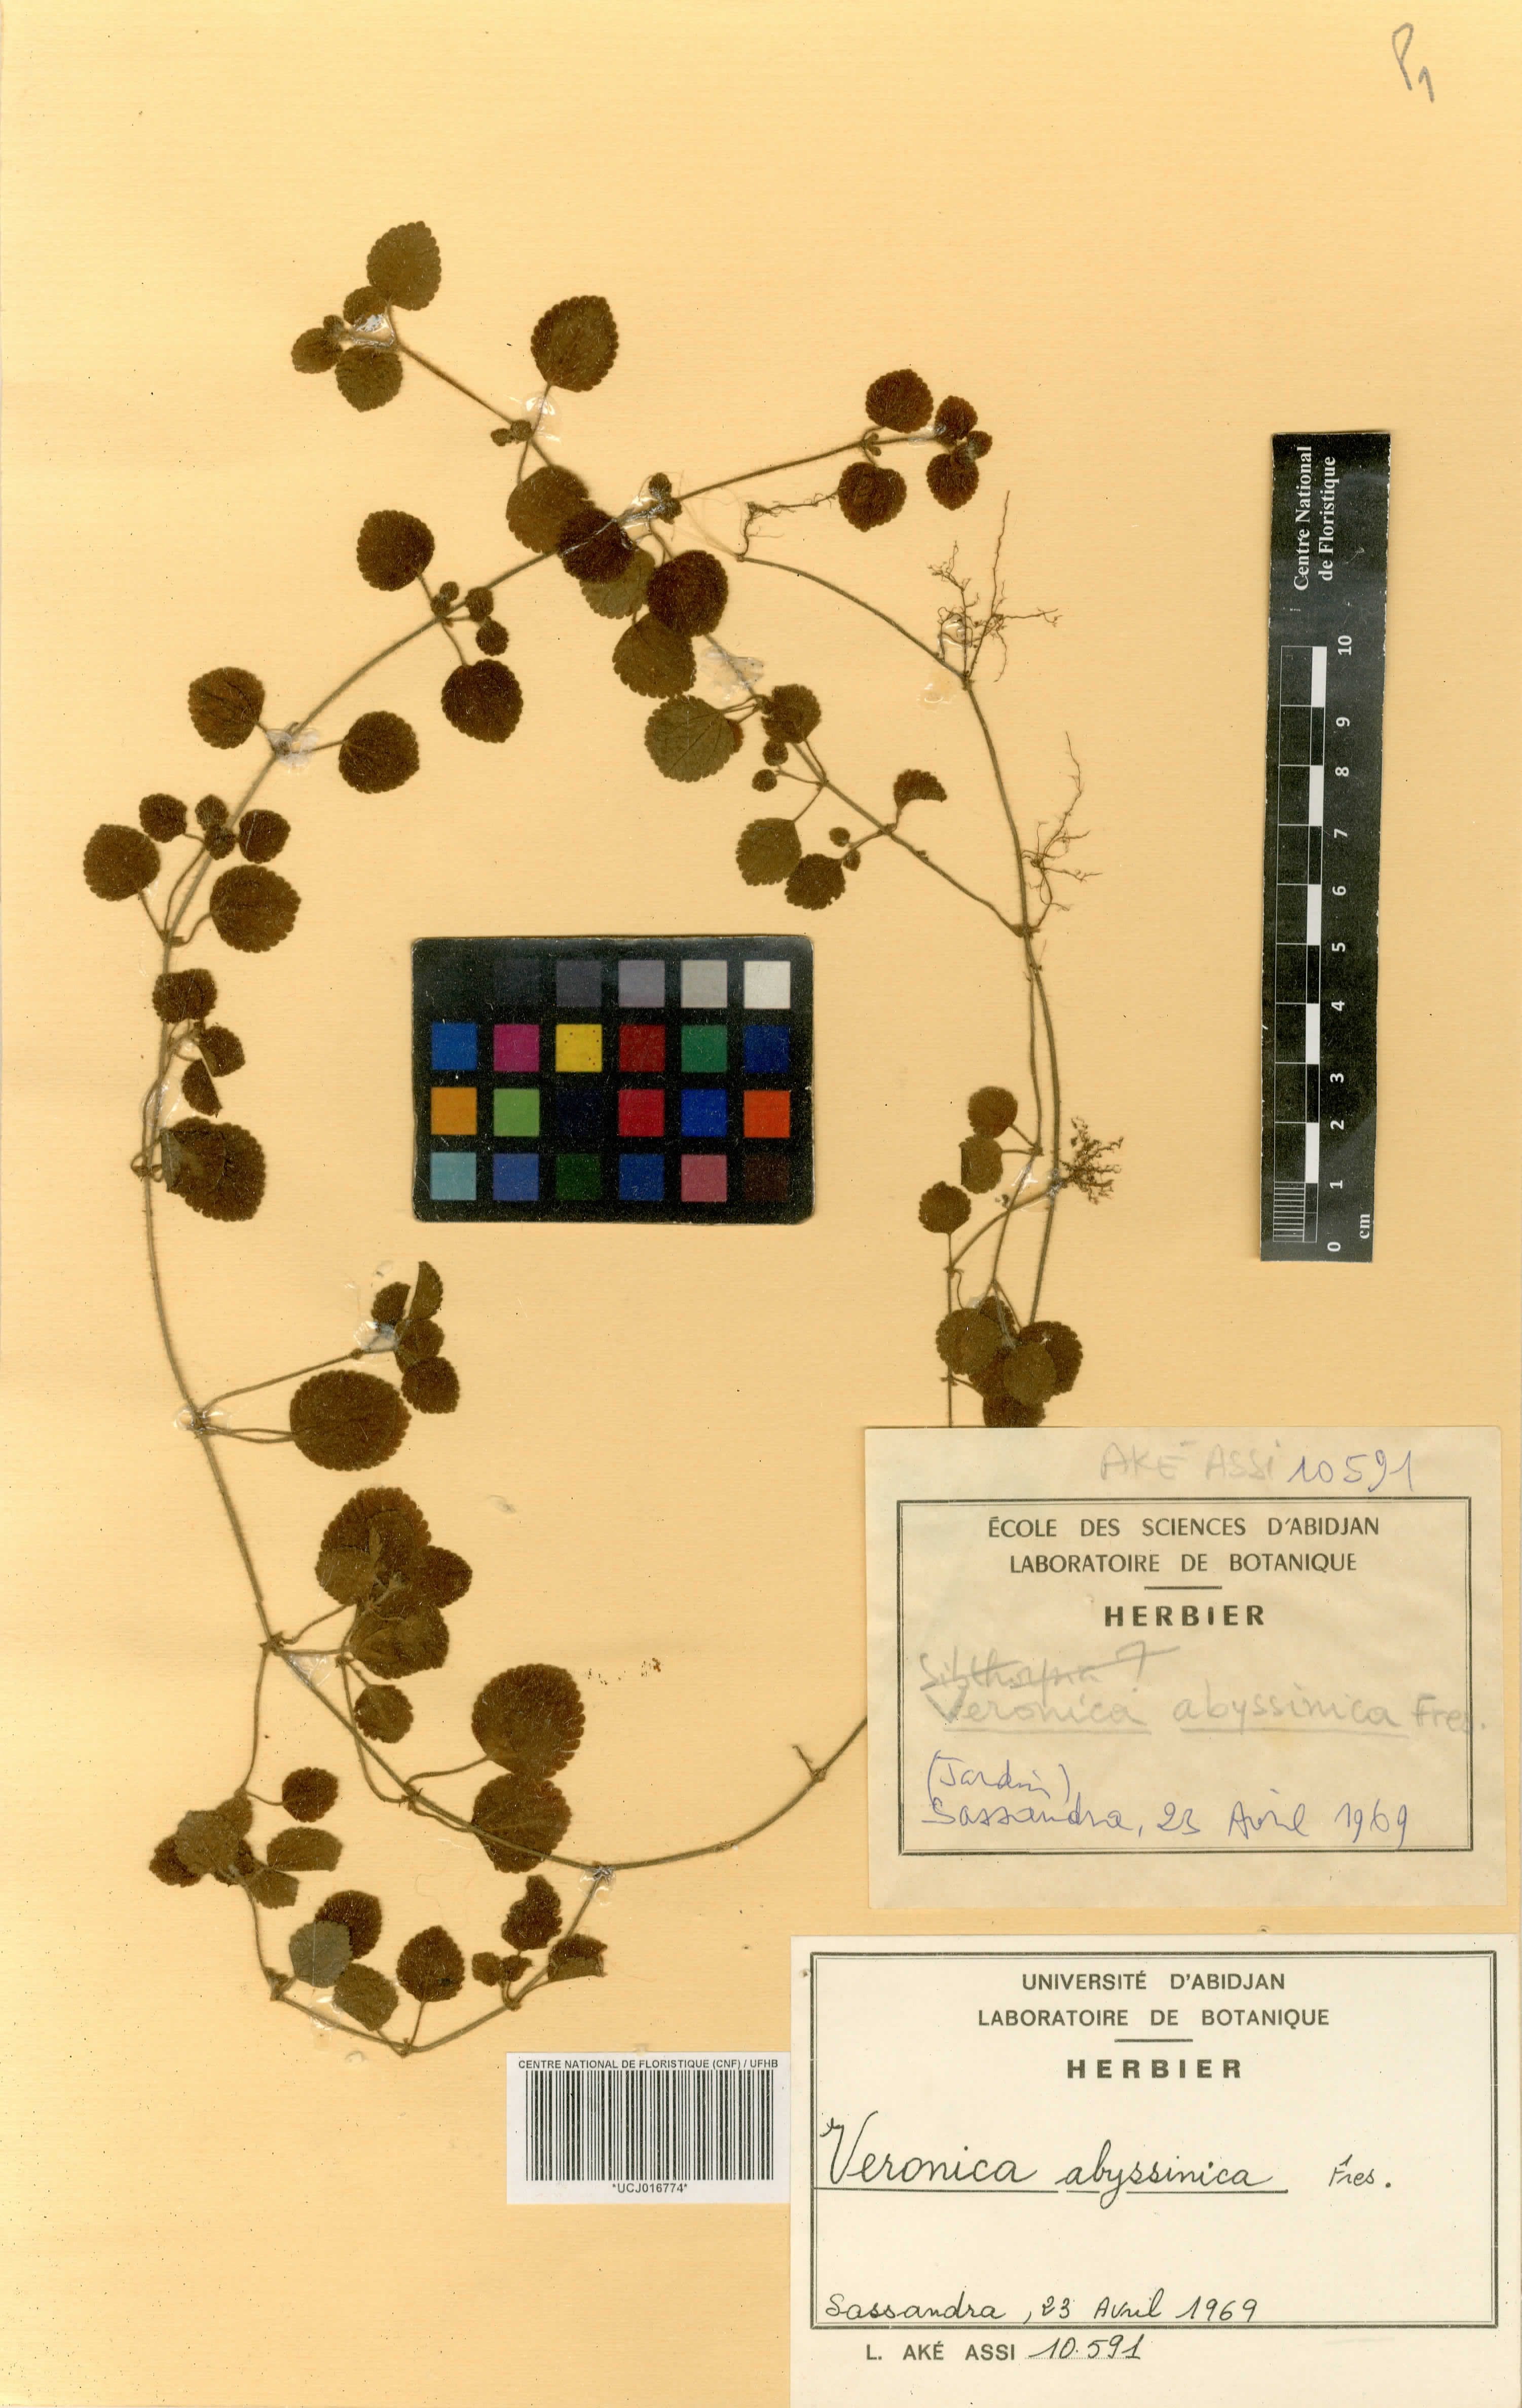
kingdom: Plantae
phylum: Tracheophyta
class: Magnoliopsida
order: Lamiales
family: Plantaginaceae
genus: Veronica
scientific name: Veronica abyssinica
